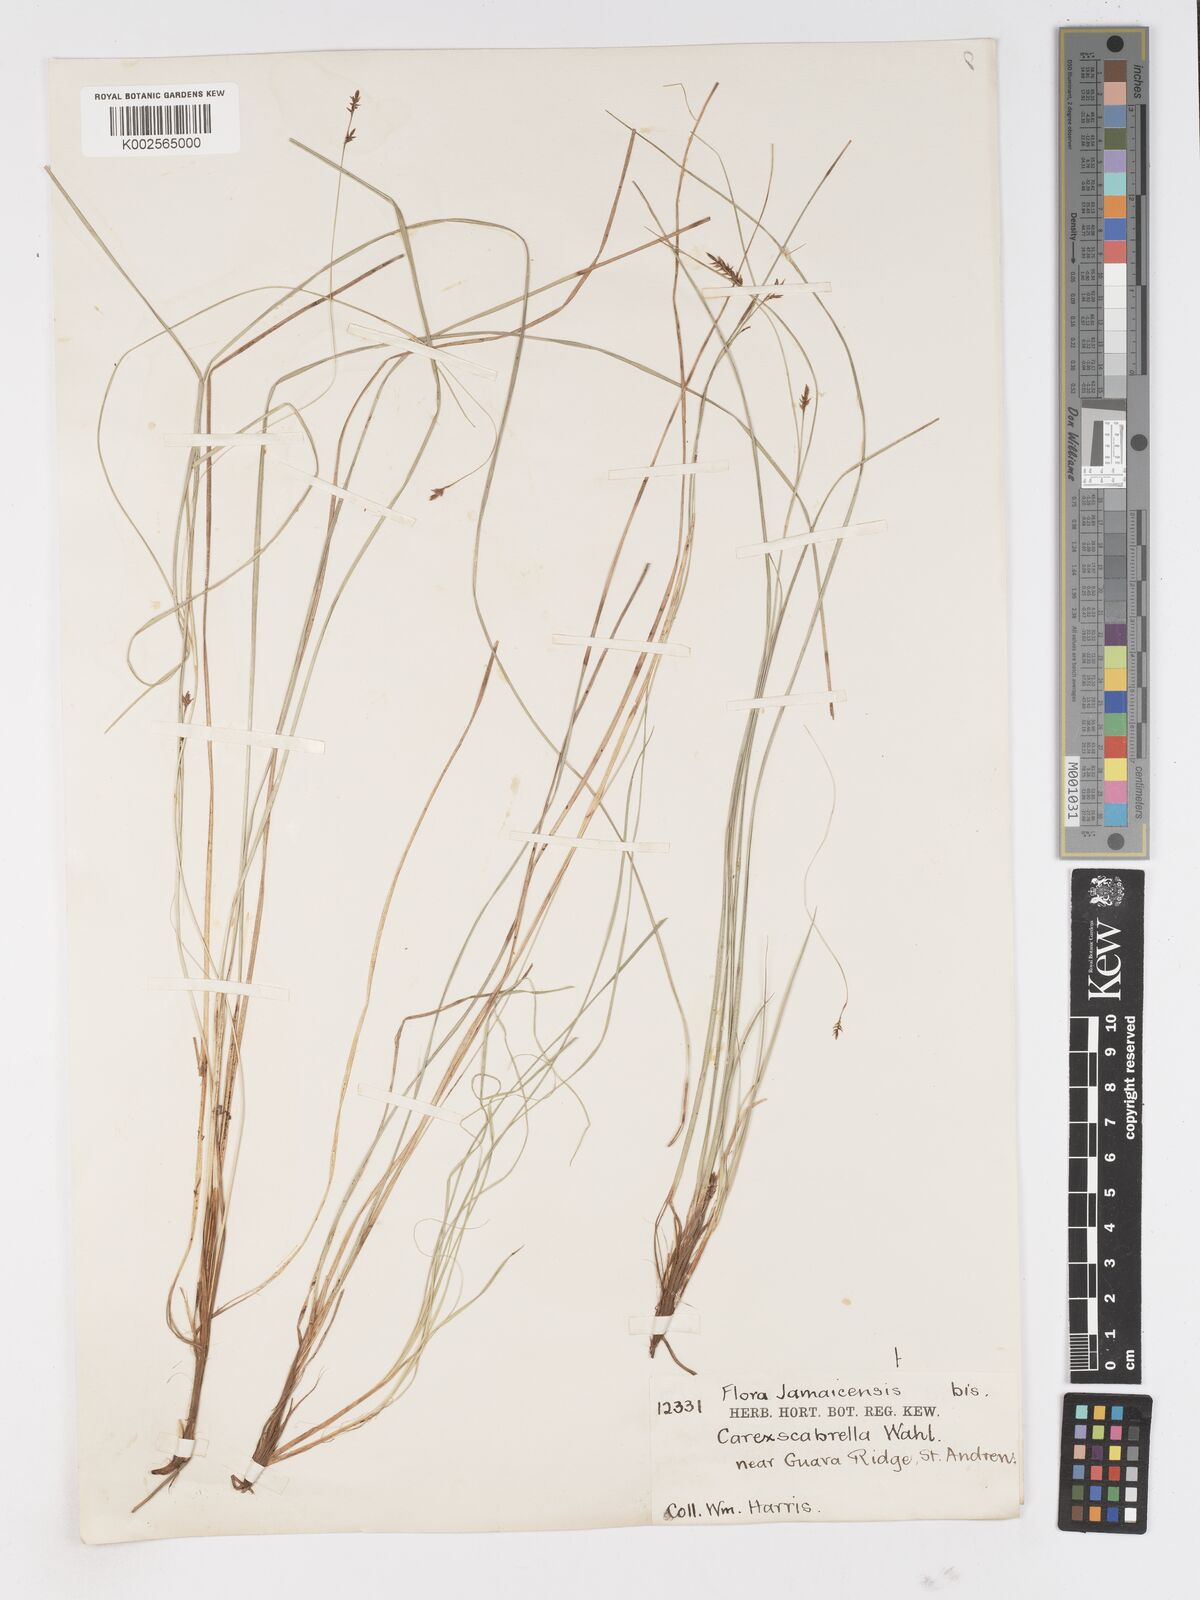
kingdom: Plantae
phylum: Tracheophyta
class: Liliopsida
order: Poales
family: Cyperaceae
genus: Carex
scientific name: Carex
